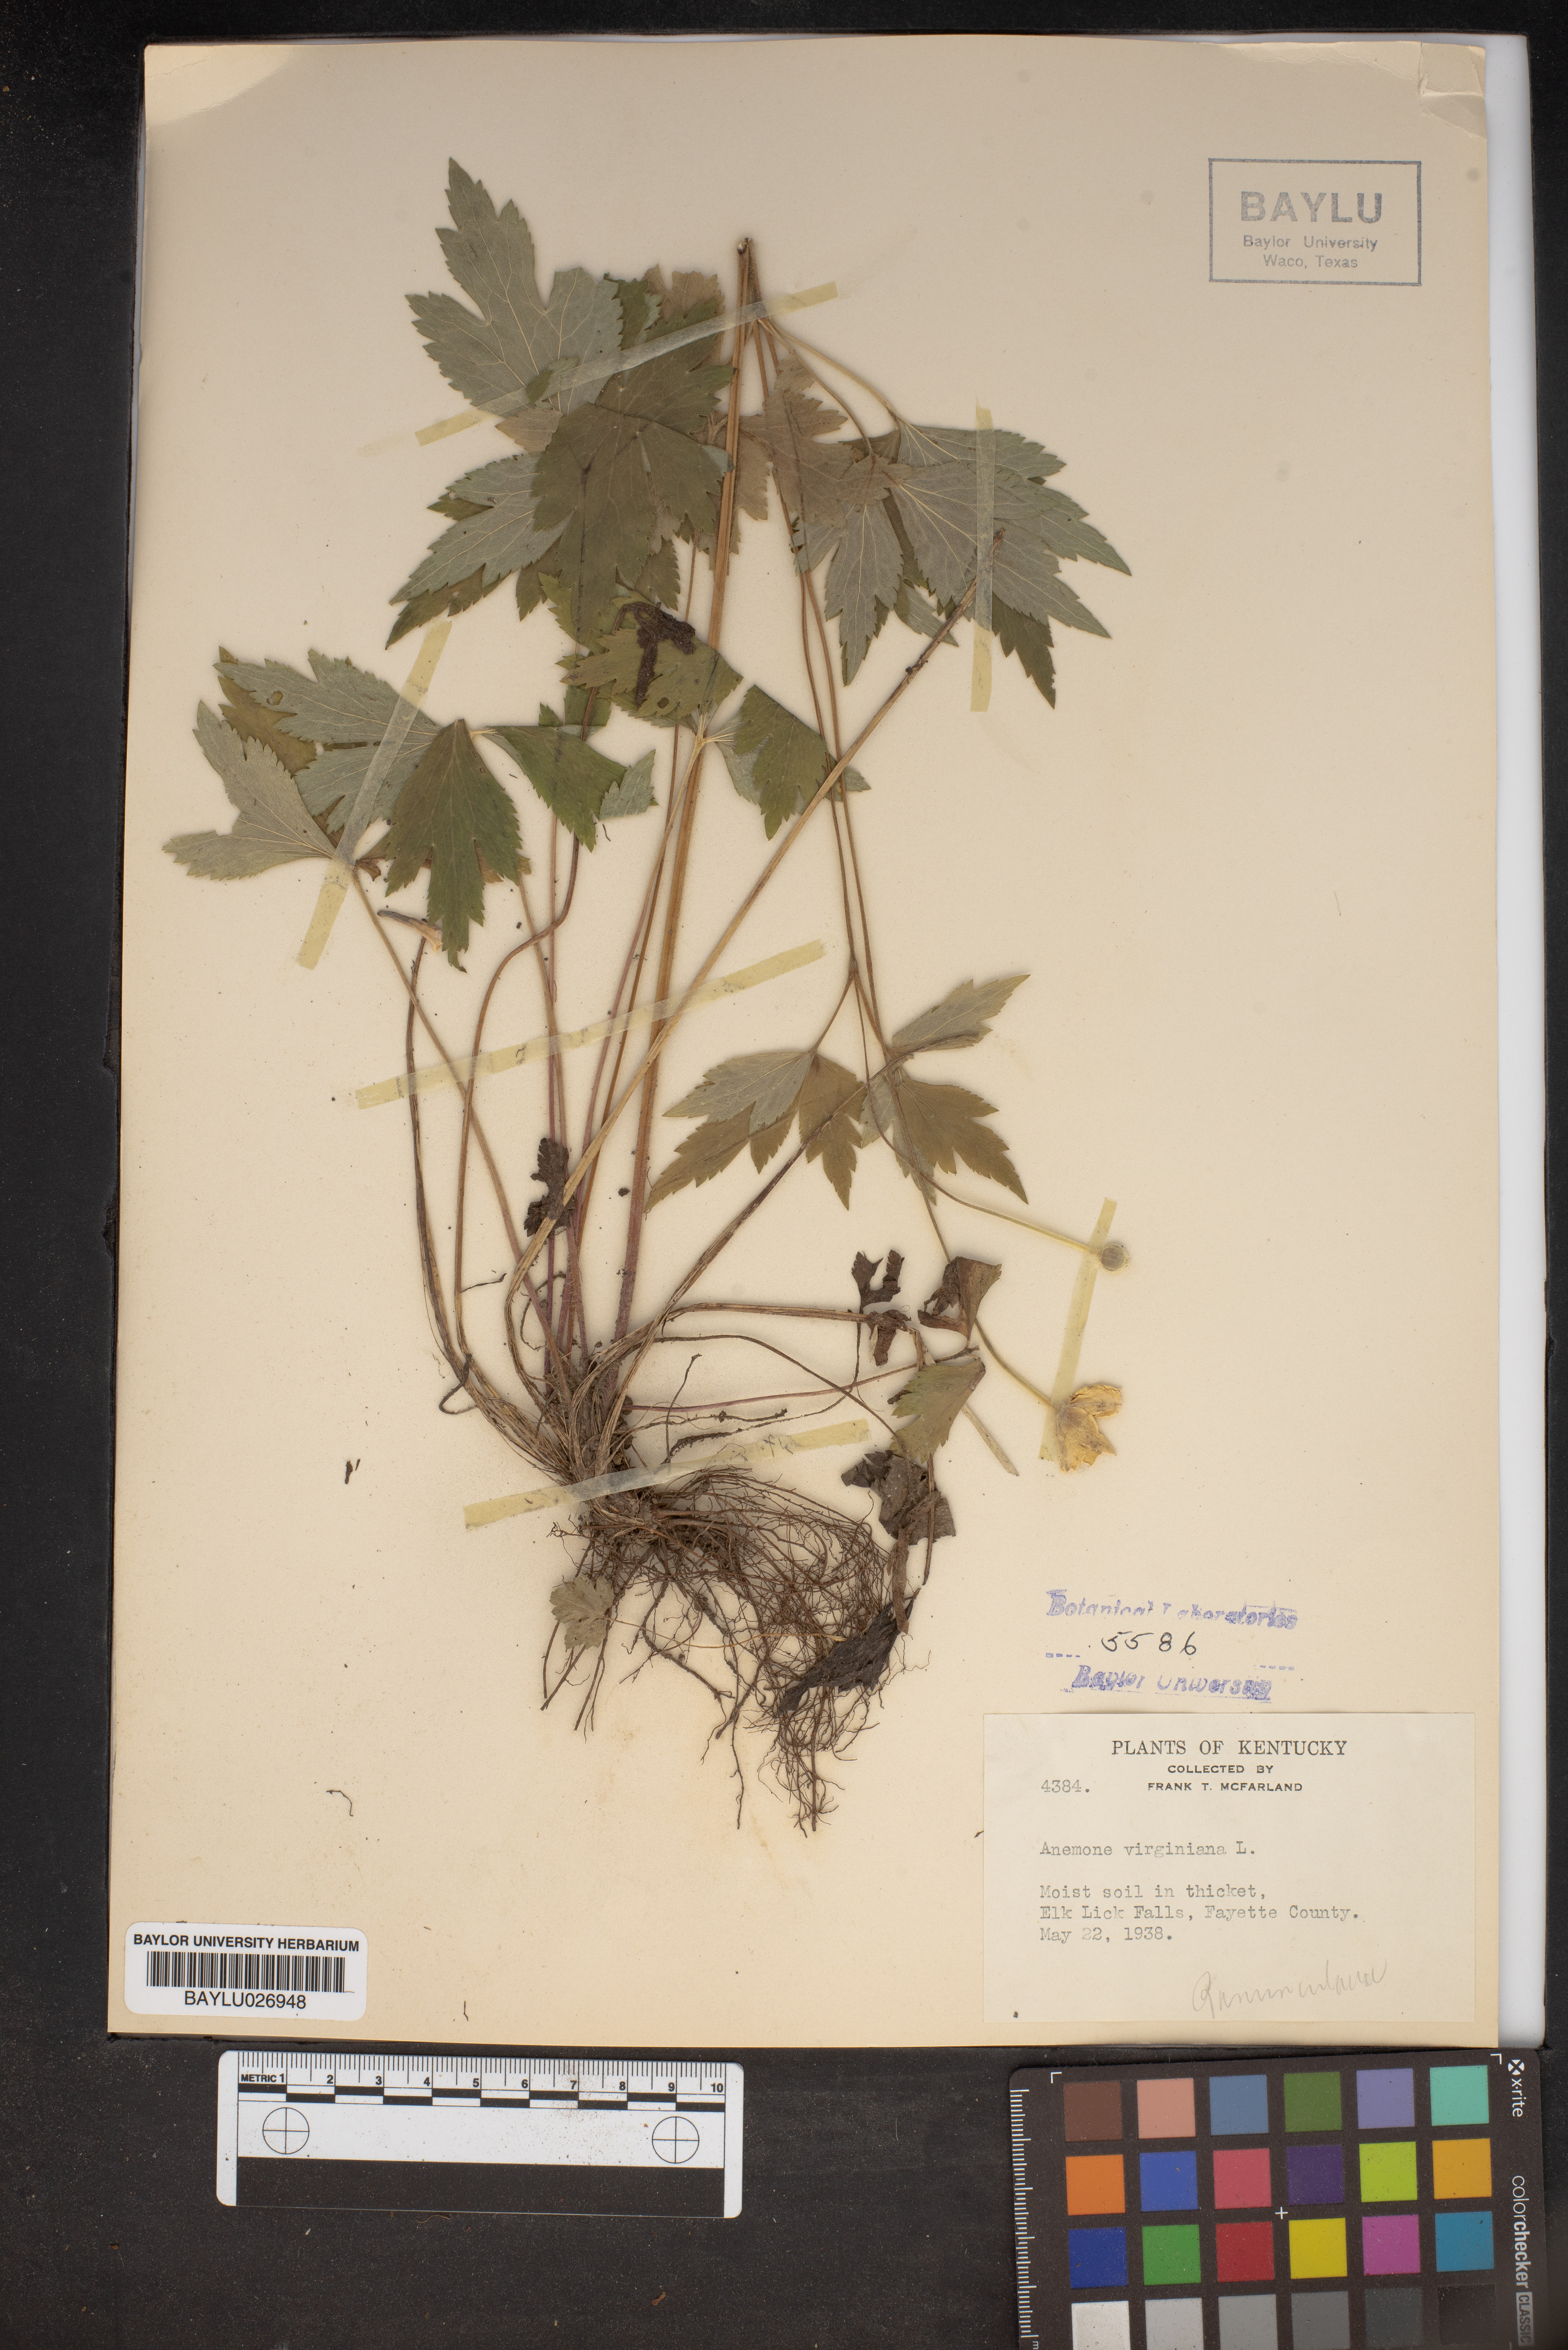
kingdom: Plantae
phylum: Tracheophyta
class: Magnoliopsida
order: Ranunculales
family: Ranunculaceae
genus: Anemone
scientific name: Anemone virginiana
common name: Tall anemone
